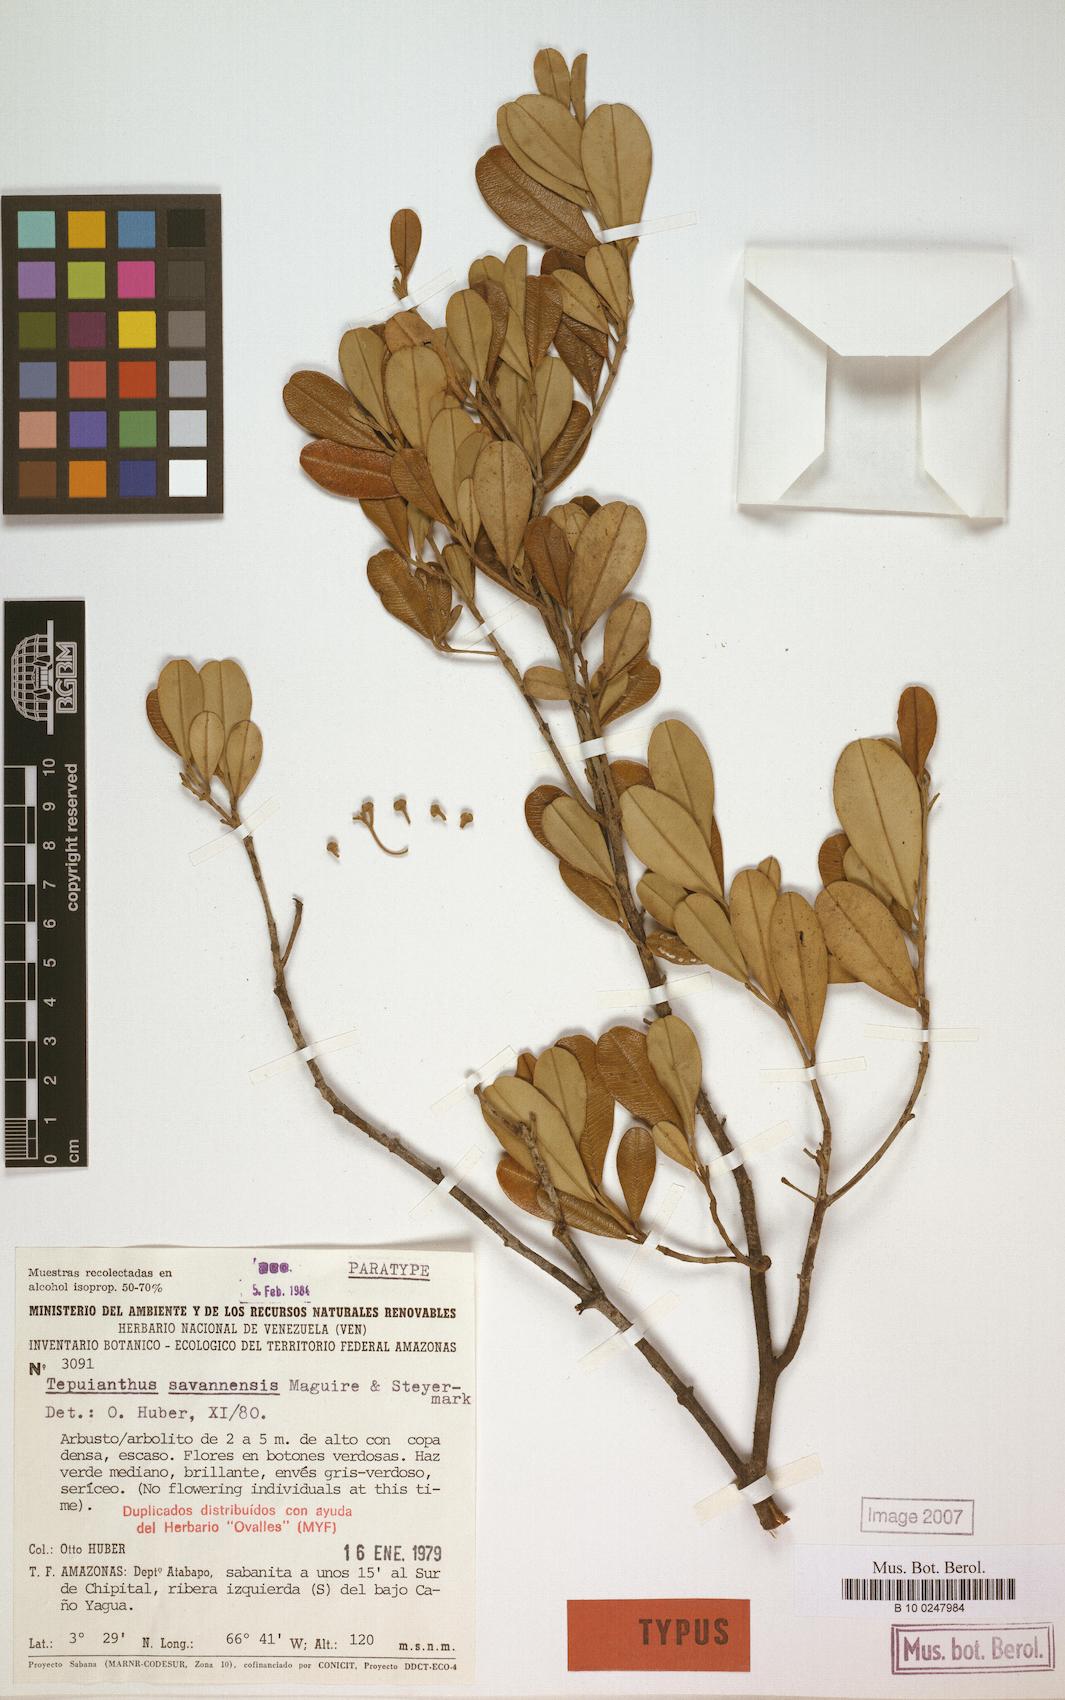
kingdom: Plantae
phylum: Tracheophyta
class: Magnoliopsida
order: Malvales
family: Thymelaeaceae
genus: Tepuianthus
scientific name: Tepuianthus savannensis
